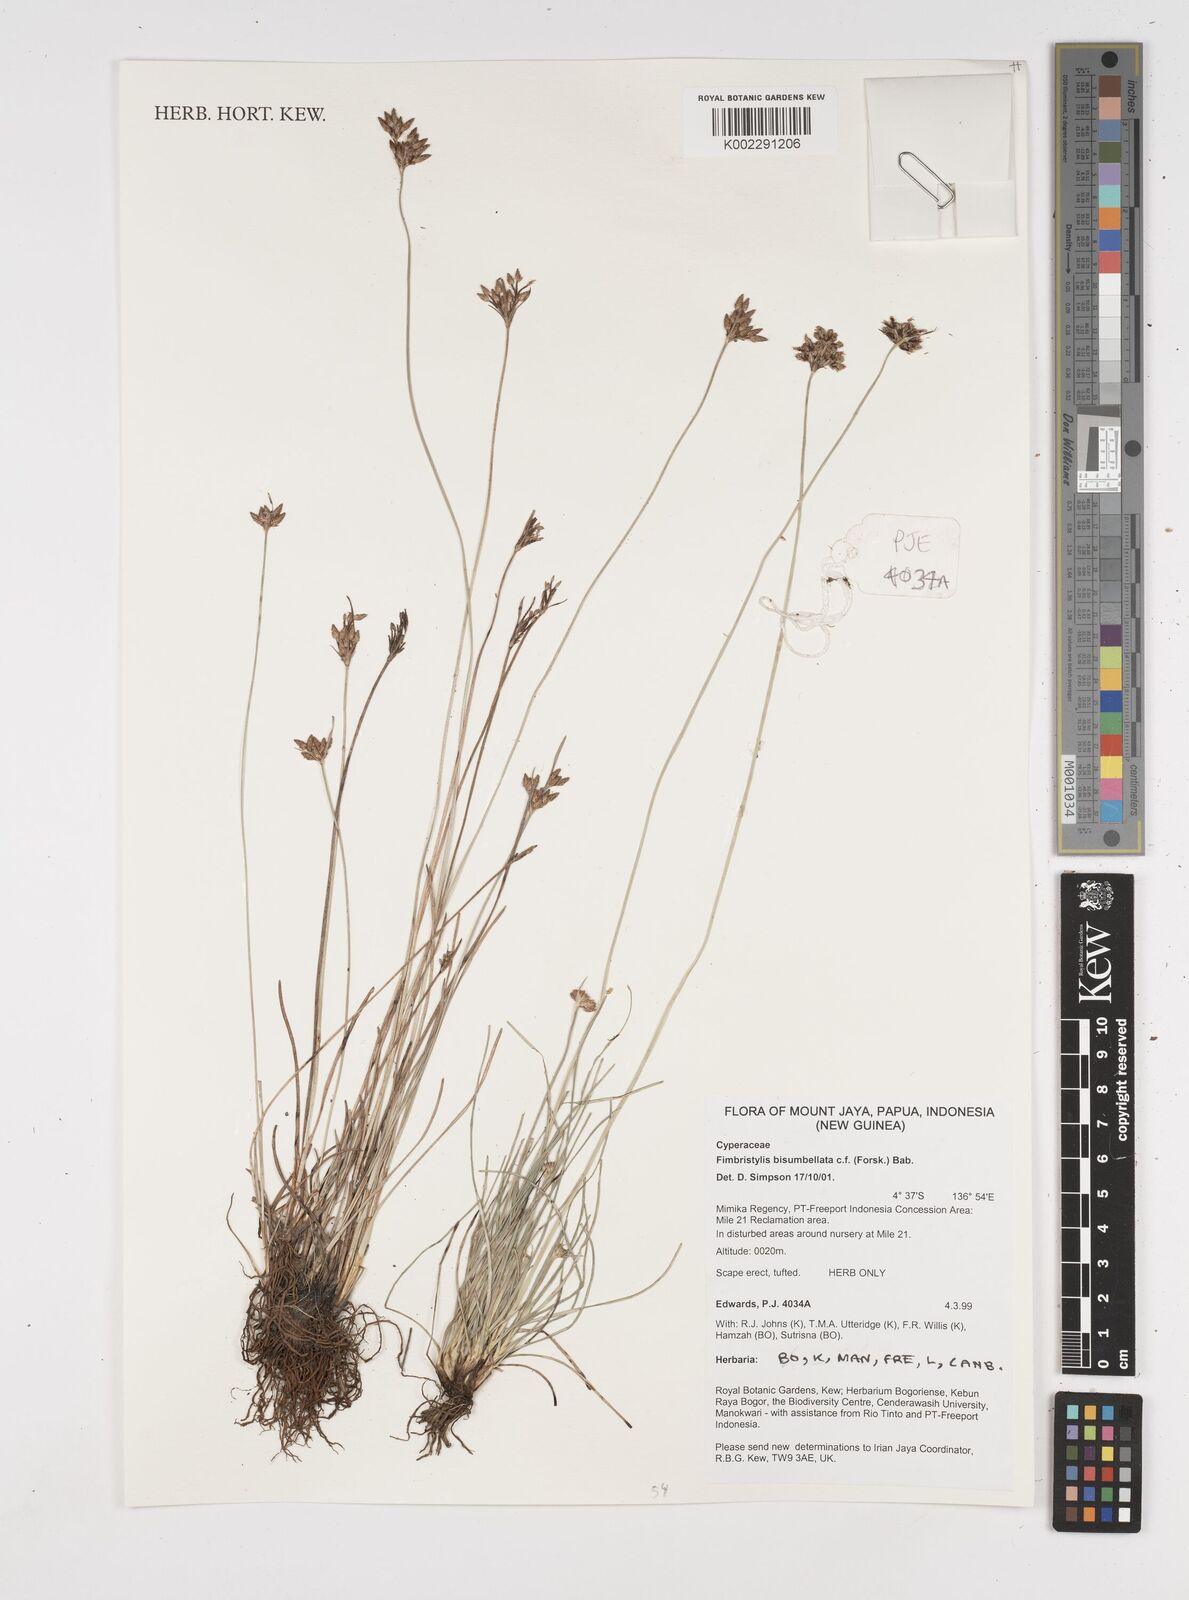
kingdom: Plantae
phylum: Tracheophyta
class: Liliopsida
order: Poales
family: Cyperaceae
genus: Fimbristylis
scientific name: Fimbristylis bisumbellata
